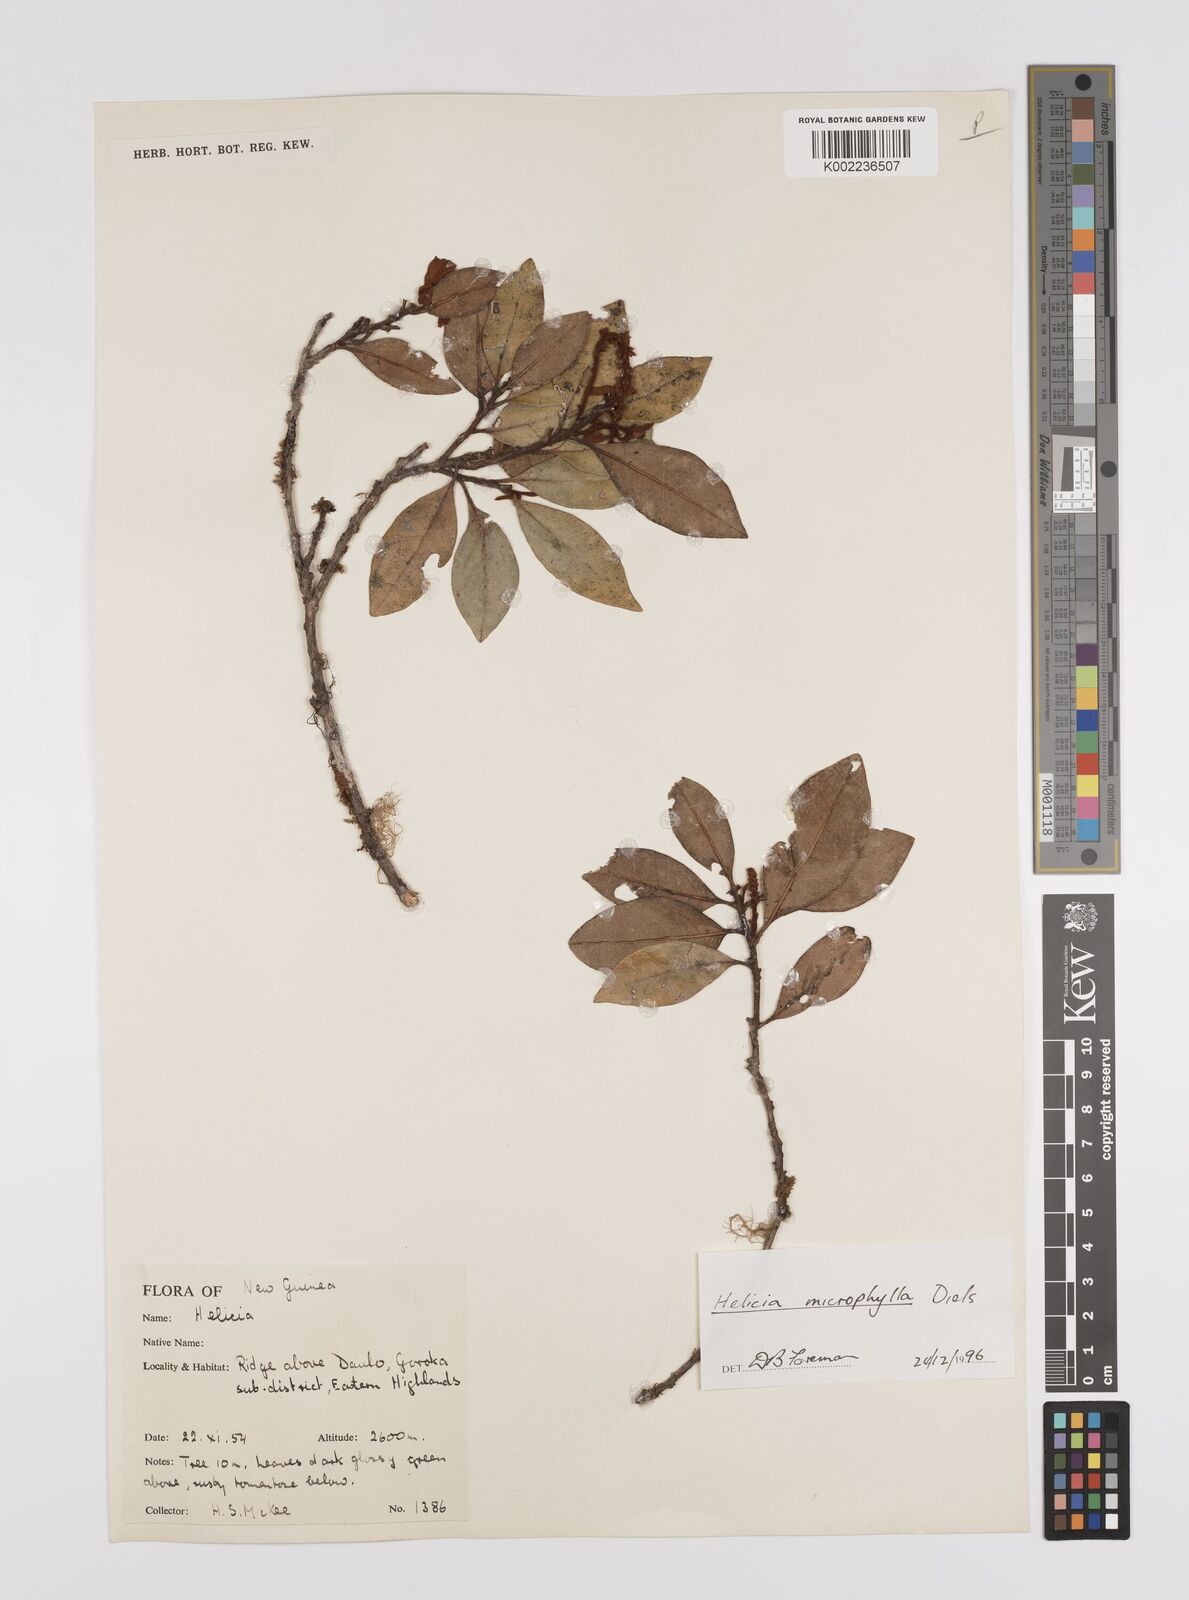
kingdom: Plantae
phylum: Tracheophyta
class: Magnoliopsida
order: Proteales
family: Proteaceae
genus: Helicia
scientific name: Helicia microphylla
